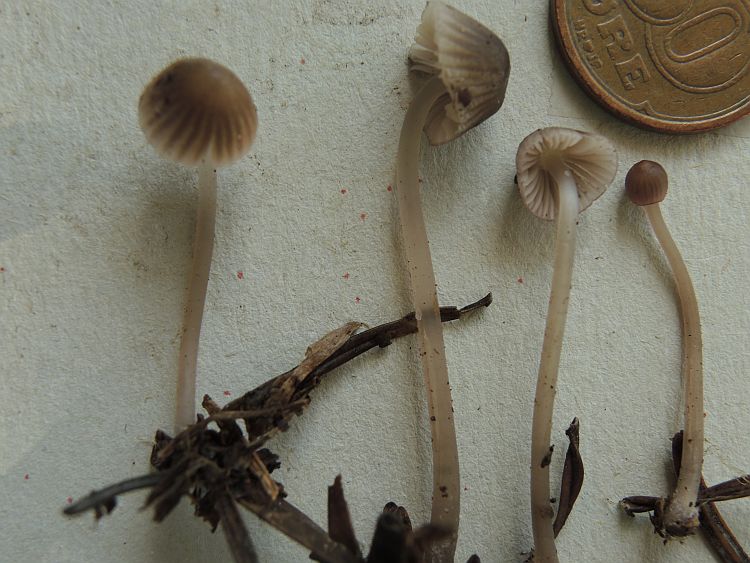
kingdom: Fungi
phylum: Basidiomycota
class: Agaricomycetes
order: Agaricales
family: Mycenaceae
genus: Mycena
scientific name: Mycena capillaripes
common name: nåle-huesvamp
